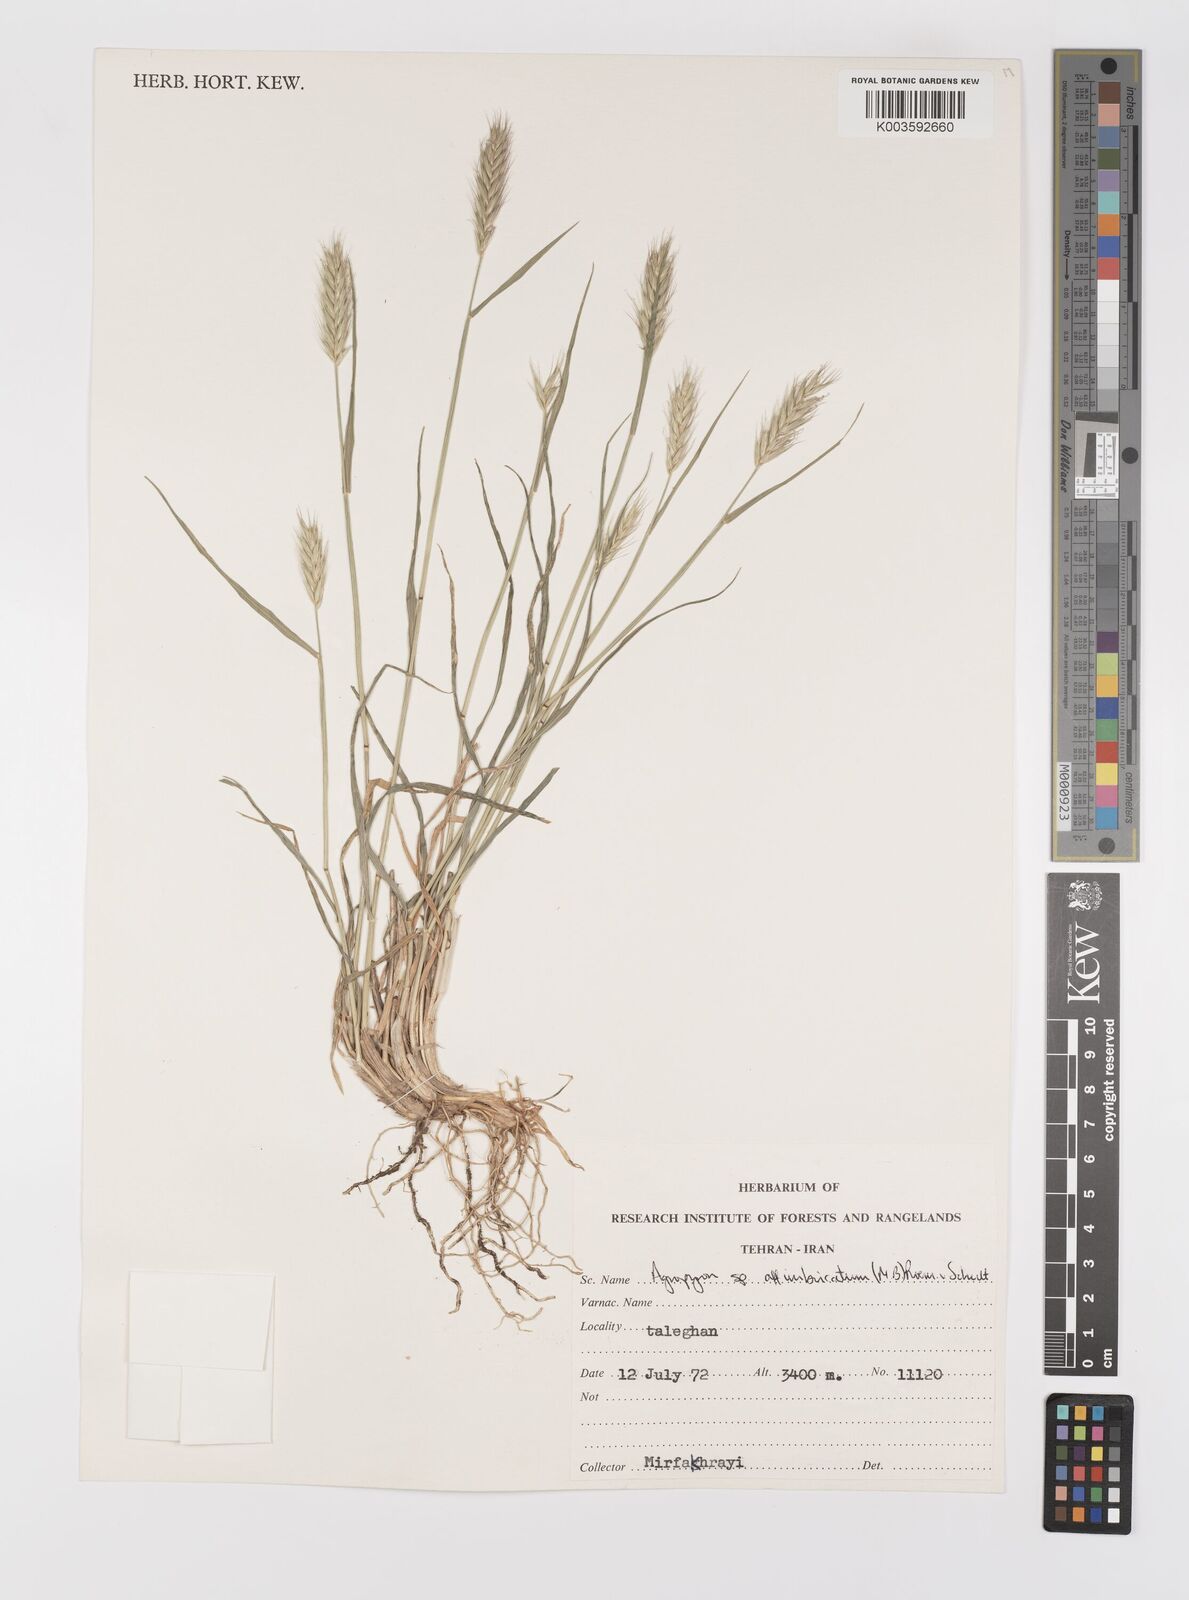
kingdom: Plantae
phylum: Tracheophyta
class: Liliopsida
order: Poales
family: Poaceae
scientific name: Poaceae
